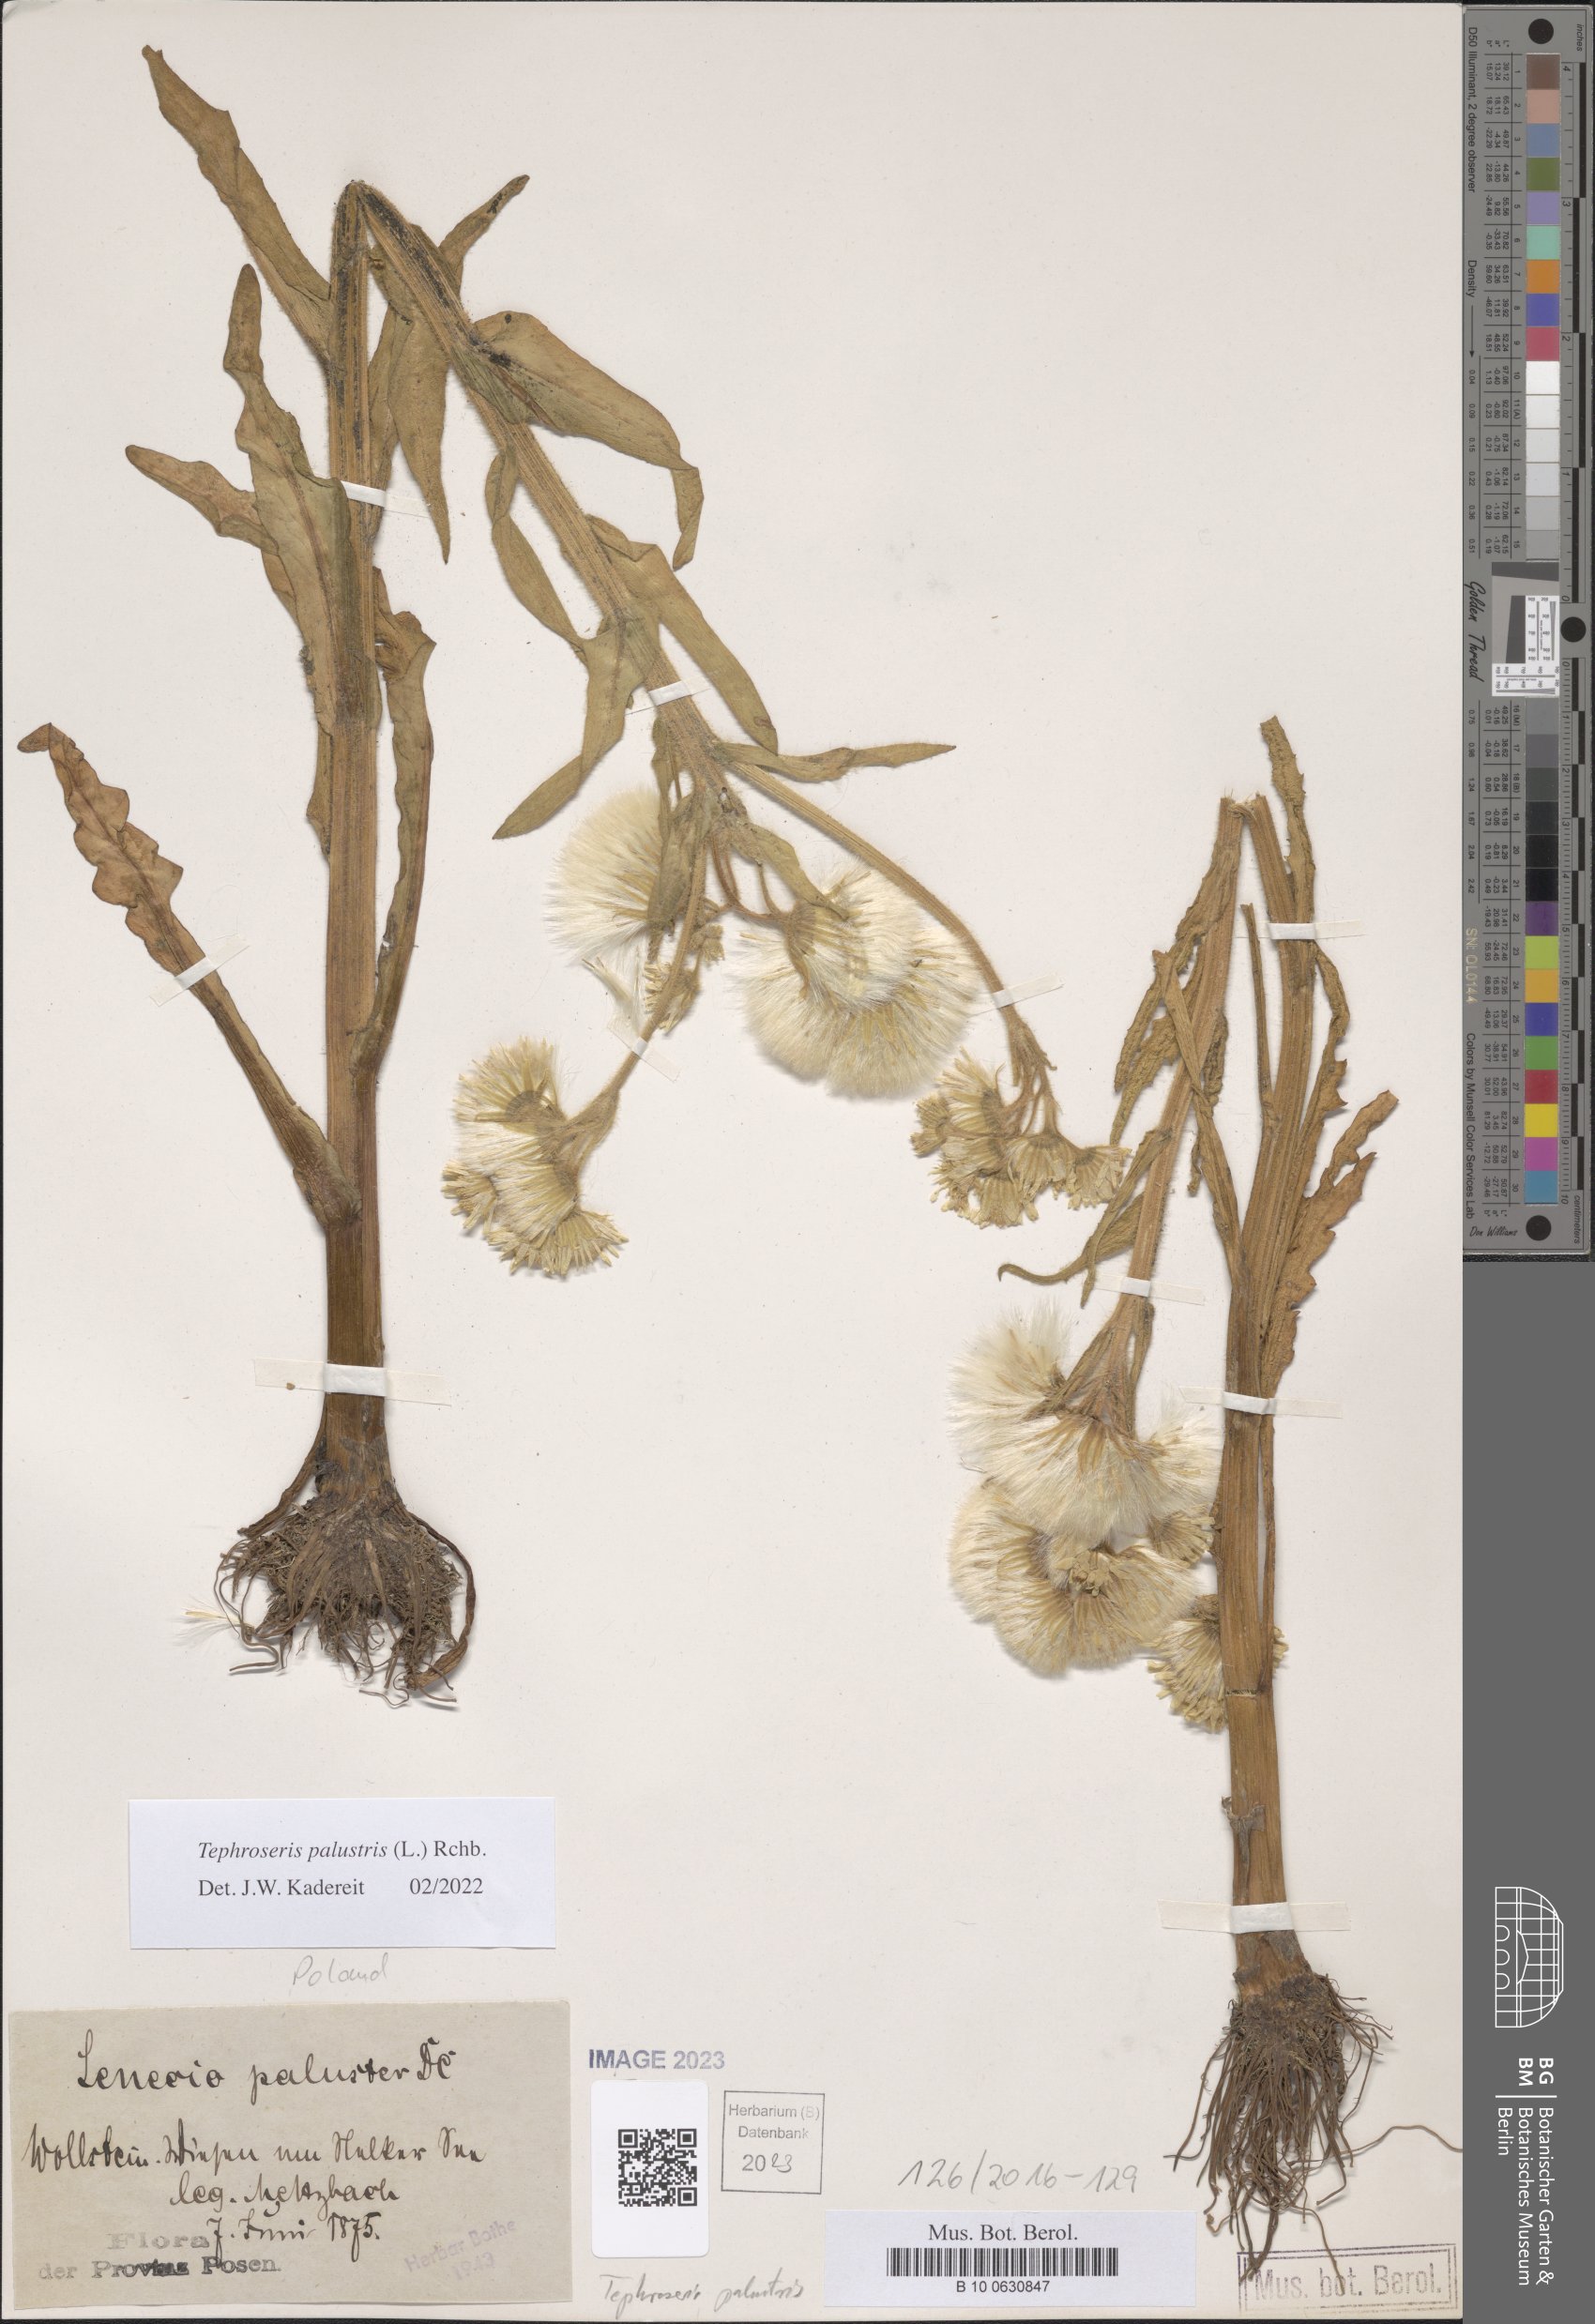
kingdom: Plantae
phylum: Tracheophyta
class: Magnoliopsida
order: Asterales
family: Asteraceae
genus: Tephroseris
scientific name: Tephroseris palustris
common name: Marsh fleawort
